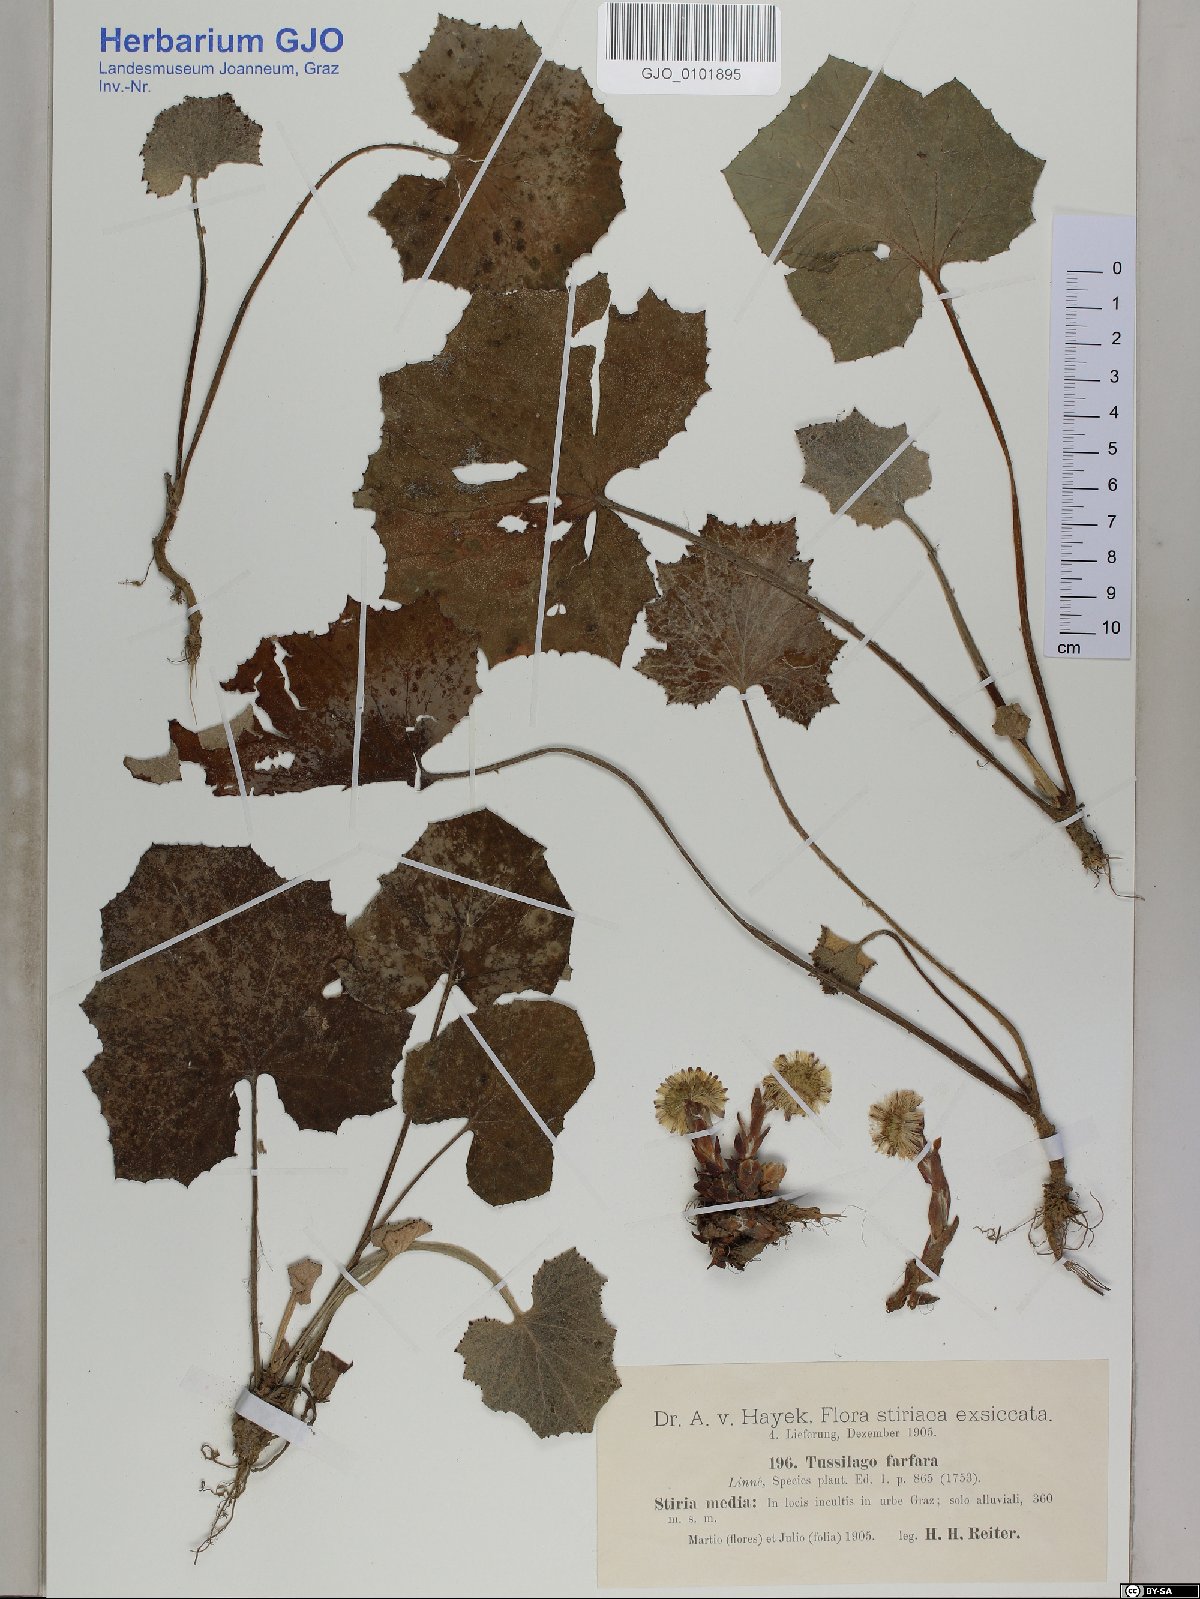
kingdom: Plantae
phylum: Tracheophyta
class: Magnoliopsida
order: Asterales
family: Asteraceae
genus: Tussilago
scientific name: Tussilago farfara
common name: Coltsfoot
